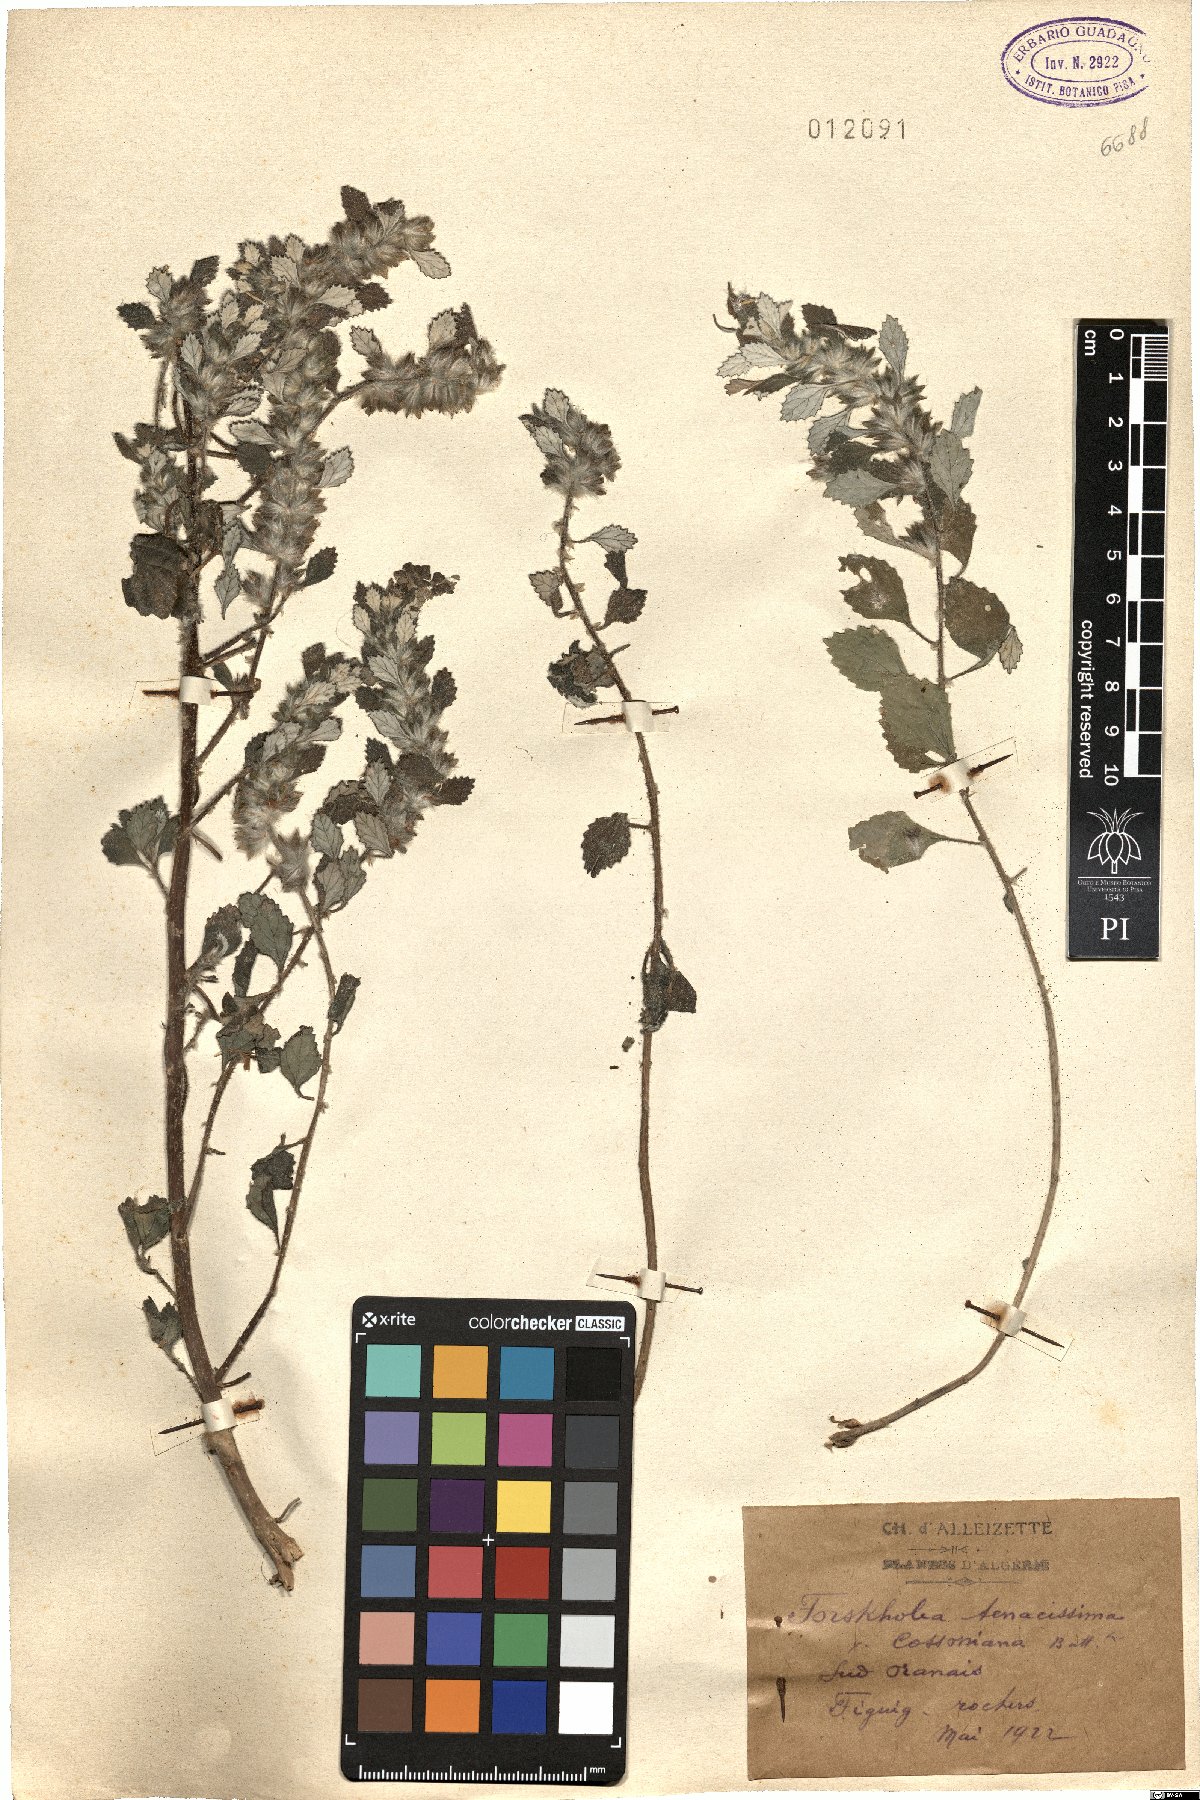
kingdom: Plantae
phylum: Tracheophyta
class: Magnoliopsida
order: Rosales
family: Urticaceae
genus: Forsskaolea
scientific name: Forsskaolea tenacissima
